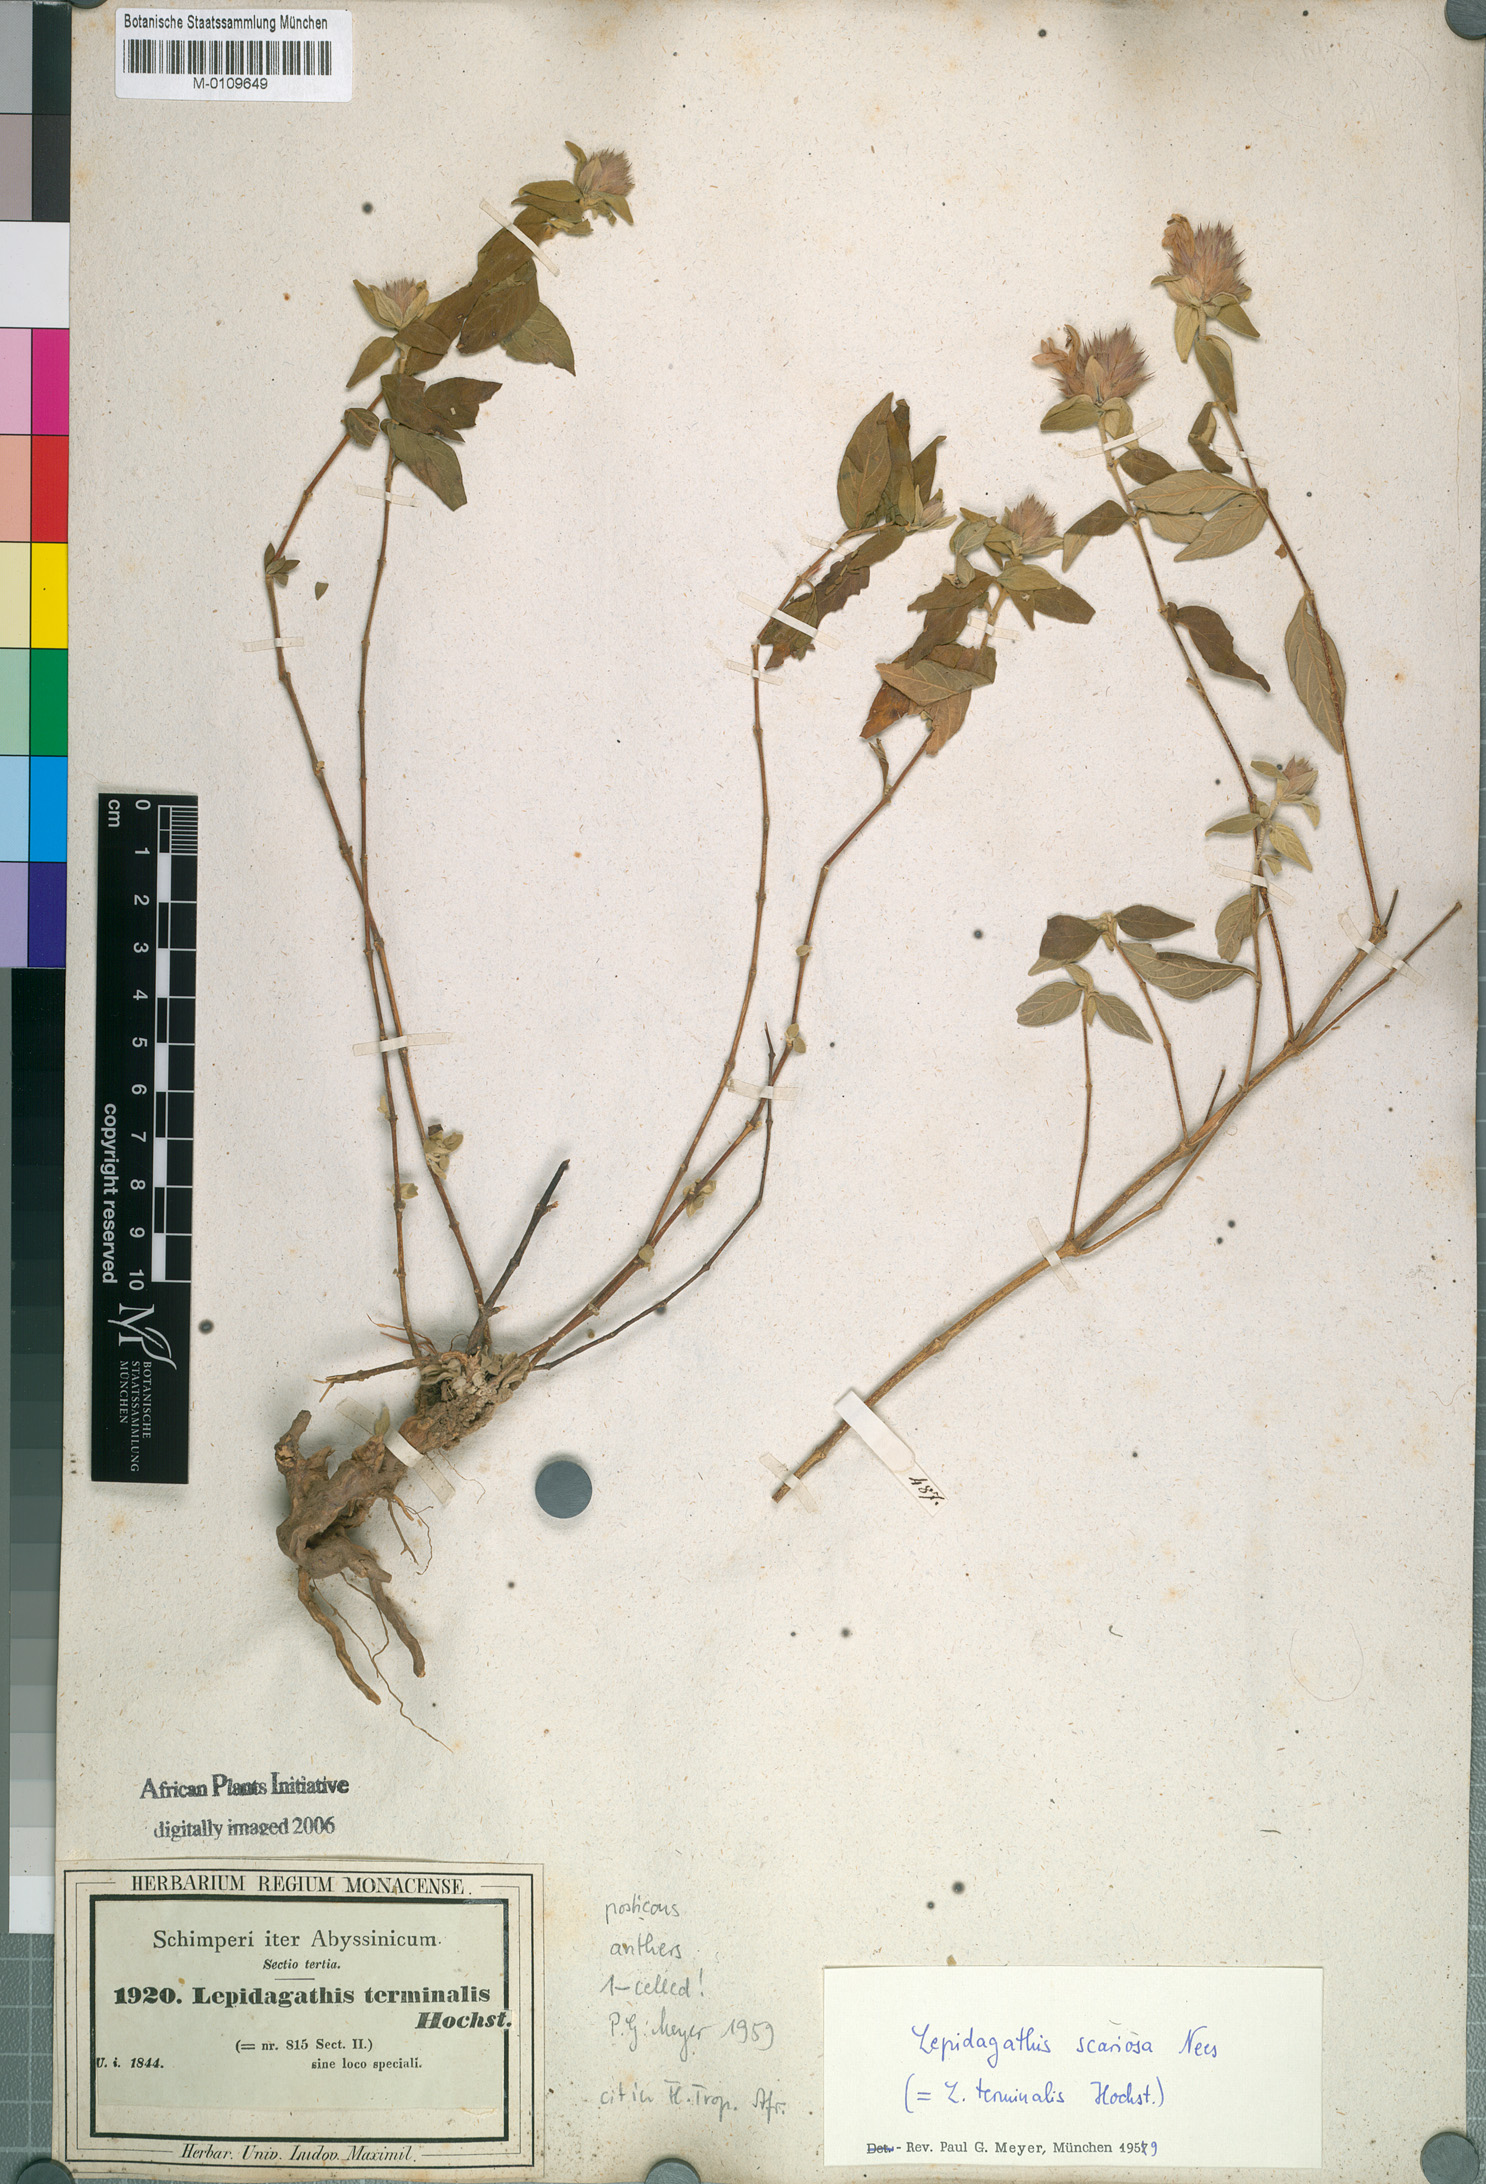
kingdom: Plantae
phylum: Tracheophyta
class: Magnoliopsida
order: Lamiales
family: Acanthaceae
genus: Lepidagathis
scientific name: Lepidagathis scariosa
